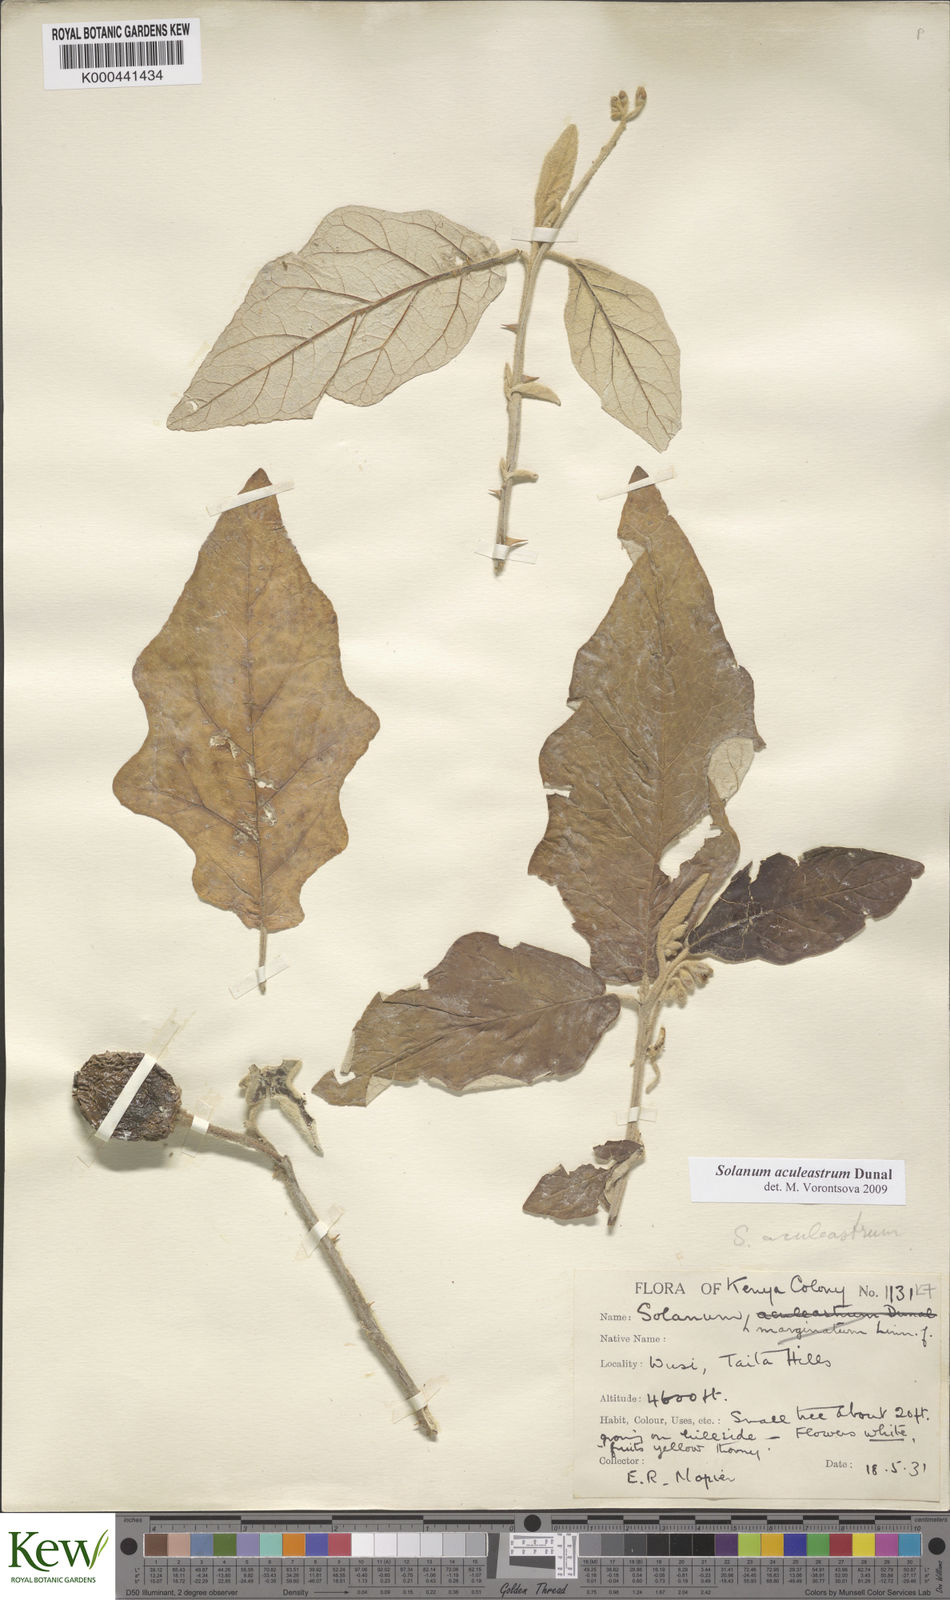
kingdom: Plantae
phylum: Tracheophyta
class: Magnoliopsida
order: Solanales
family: Solanaceae
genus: Solanum
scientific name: Solanum aculeastrum
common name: Goat bitter-apple
